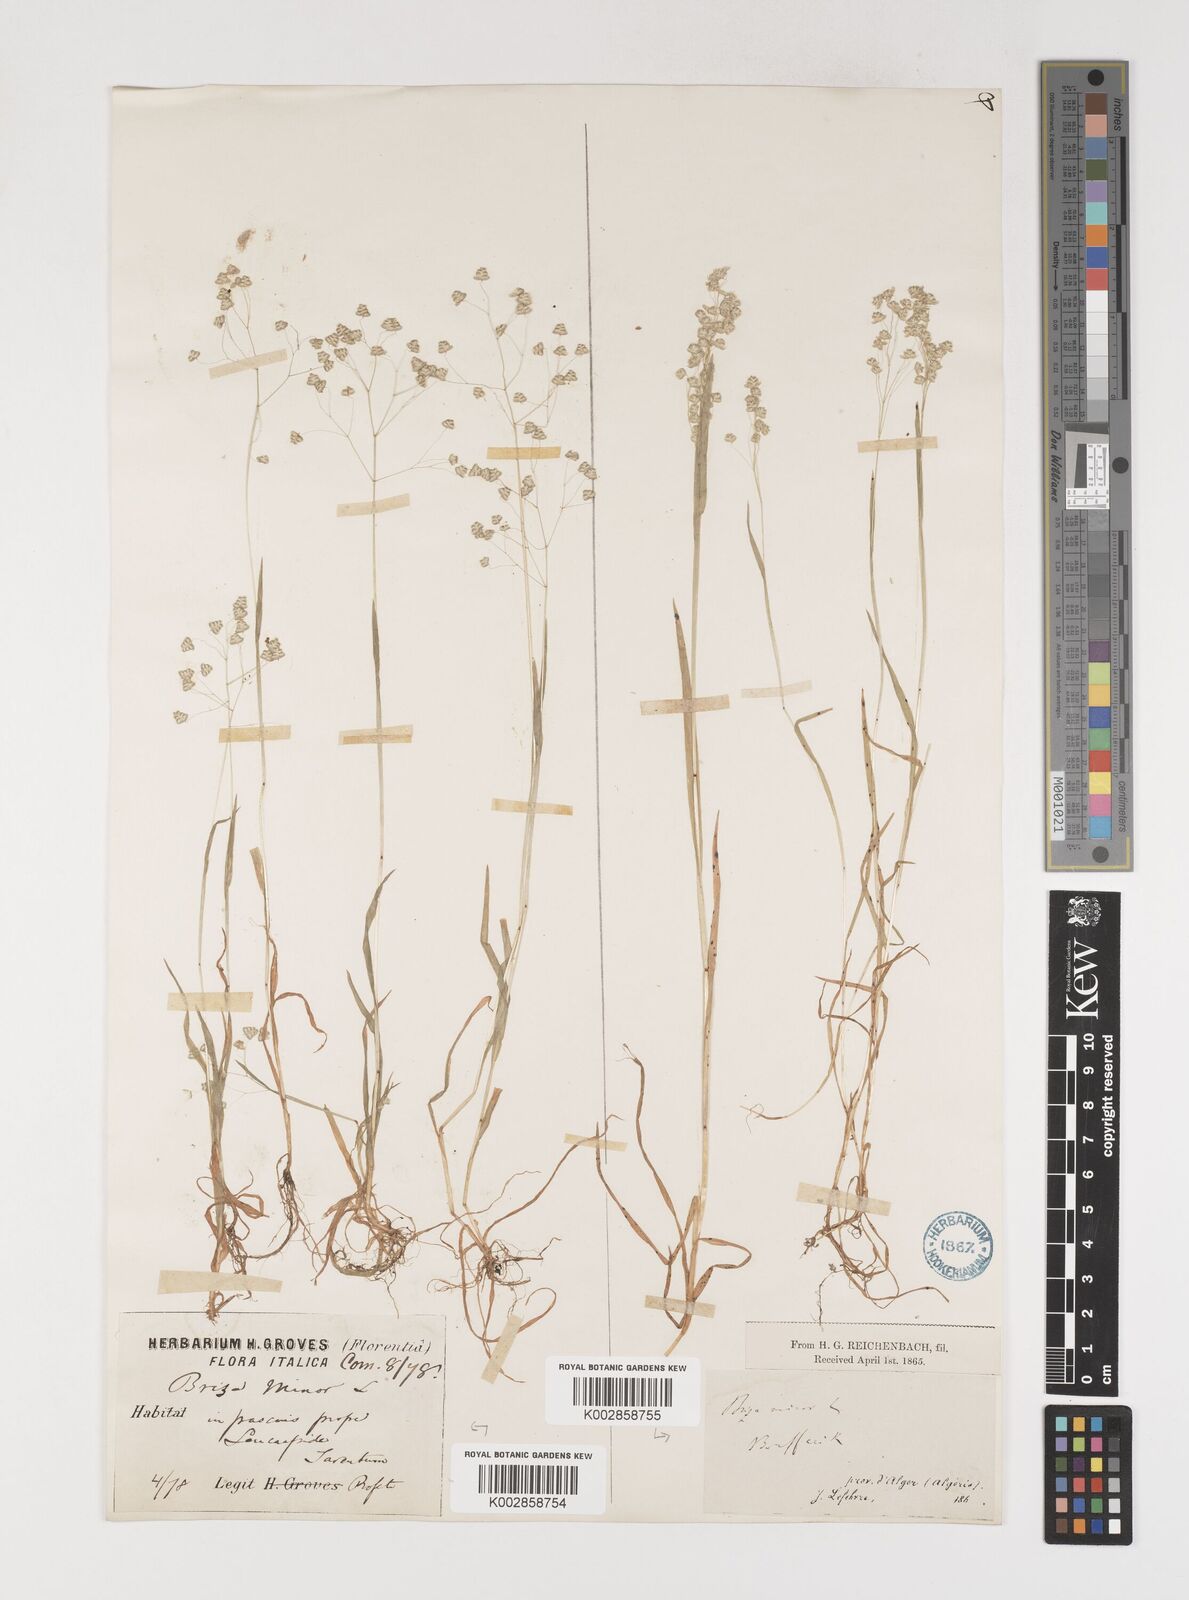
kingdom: Plantae
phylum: Tracheophyta
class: Liliopsida
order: Poales
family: Poaceae
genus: Briza
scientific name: Briza minor
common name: Lesser quaking-grass
